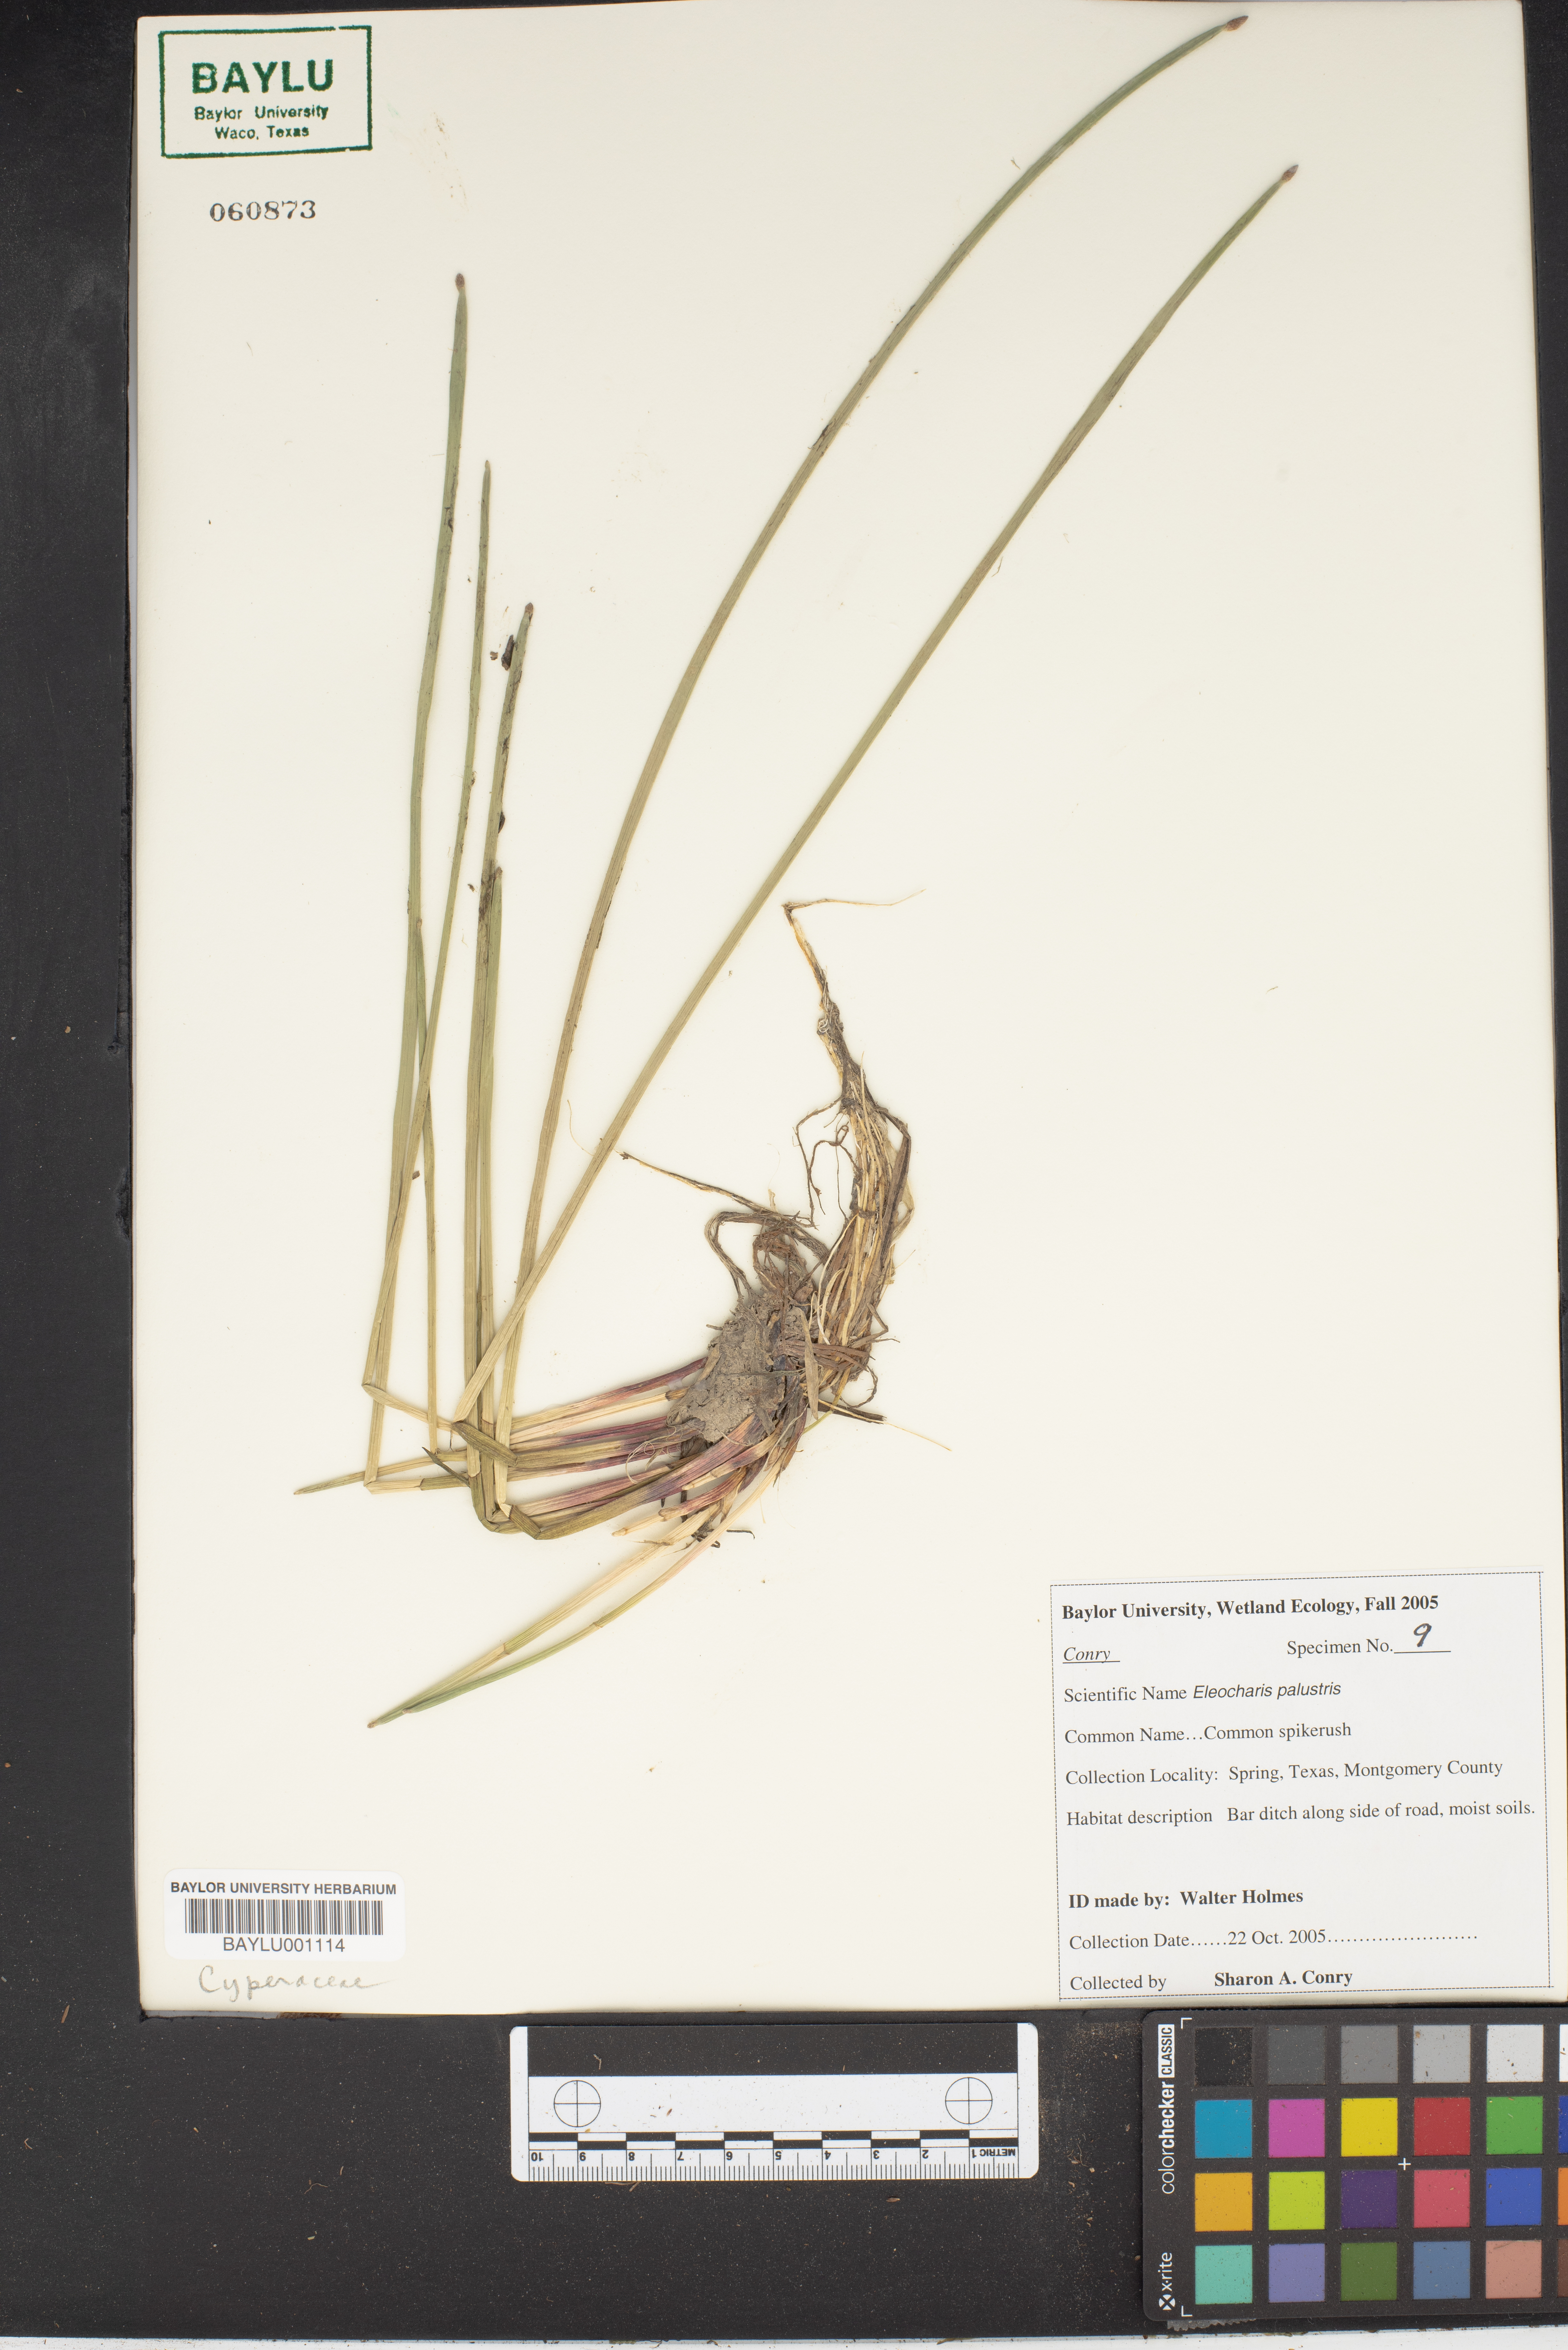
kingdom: Plantae
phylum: Tracheophyta
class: Liliopsida
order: Poales
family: Cyperaceae
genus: Eleocharis
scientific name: Eleocharis palustris
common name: Common spike-rush
